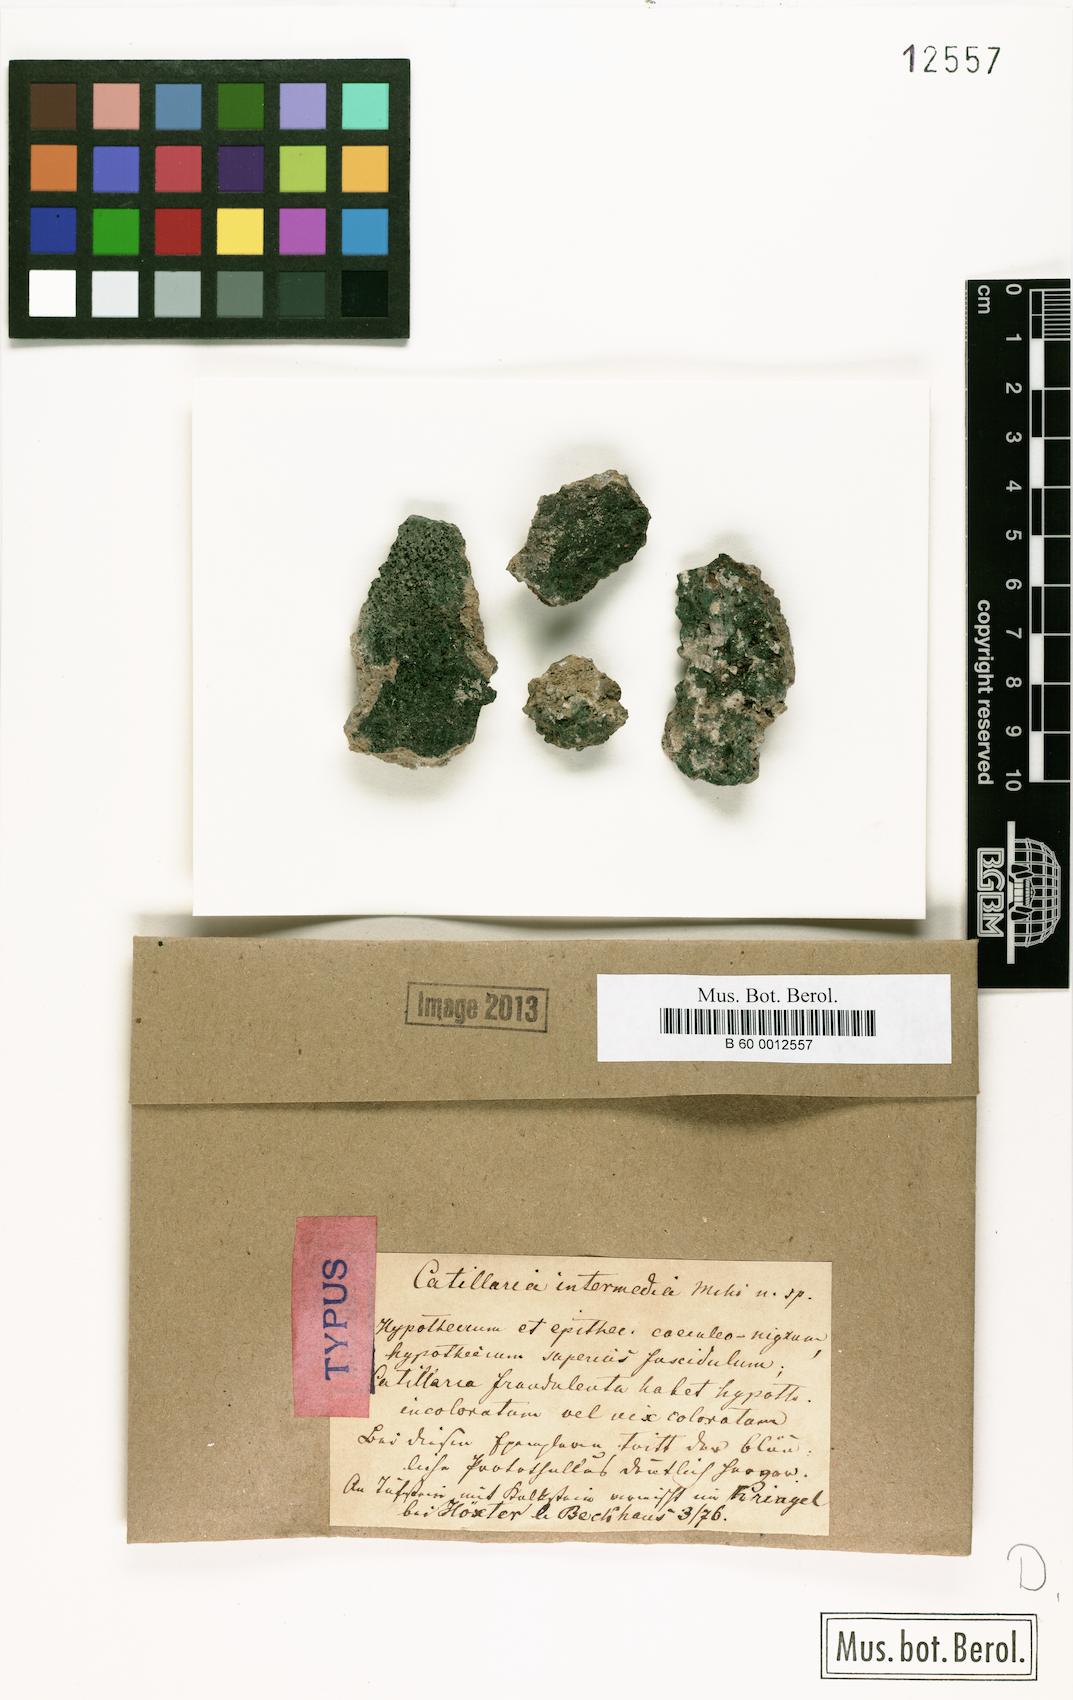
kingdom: Fungi
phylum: Ascomycota
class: Lecanoromycetes
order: Lecanorales
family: Catillariaceae
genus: Catillaria
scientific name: Catillaria intermedia
